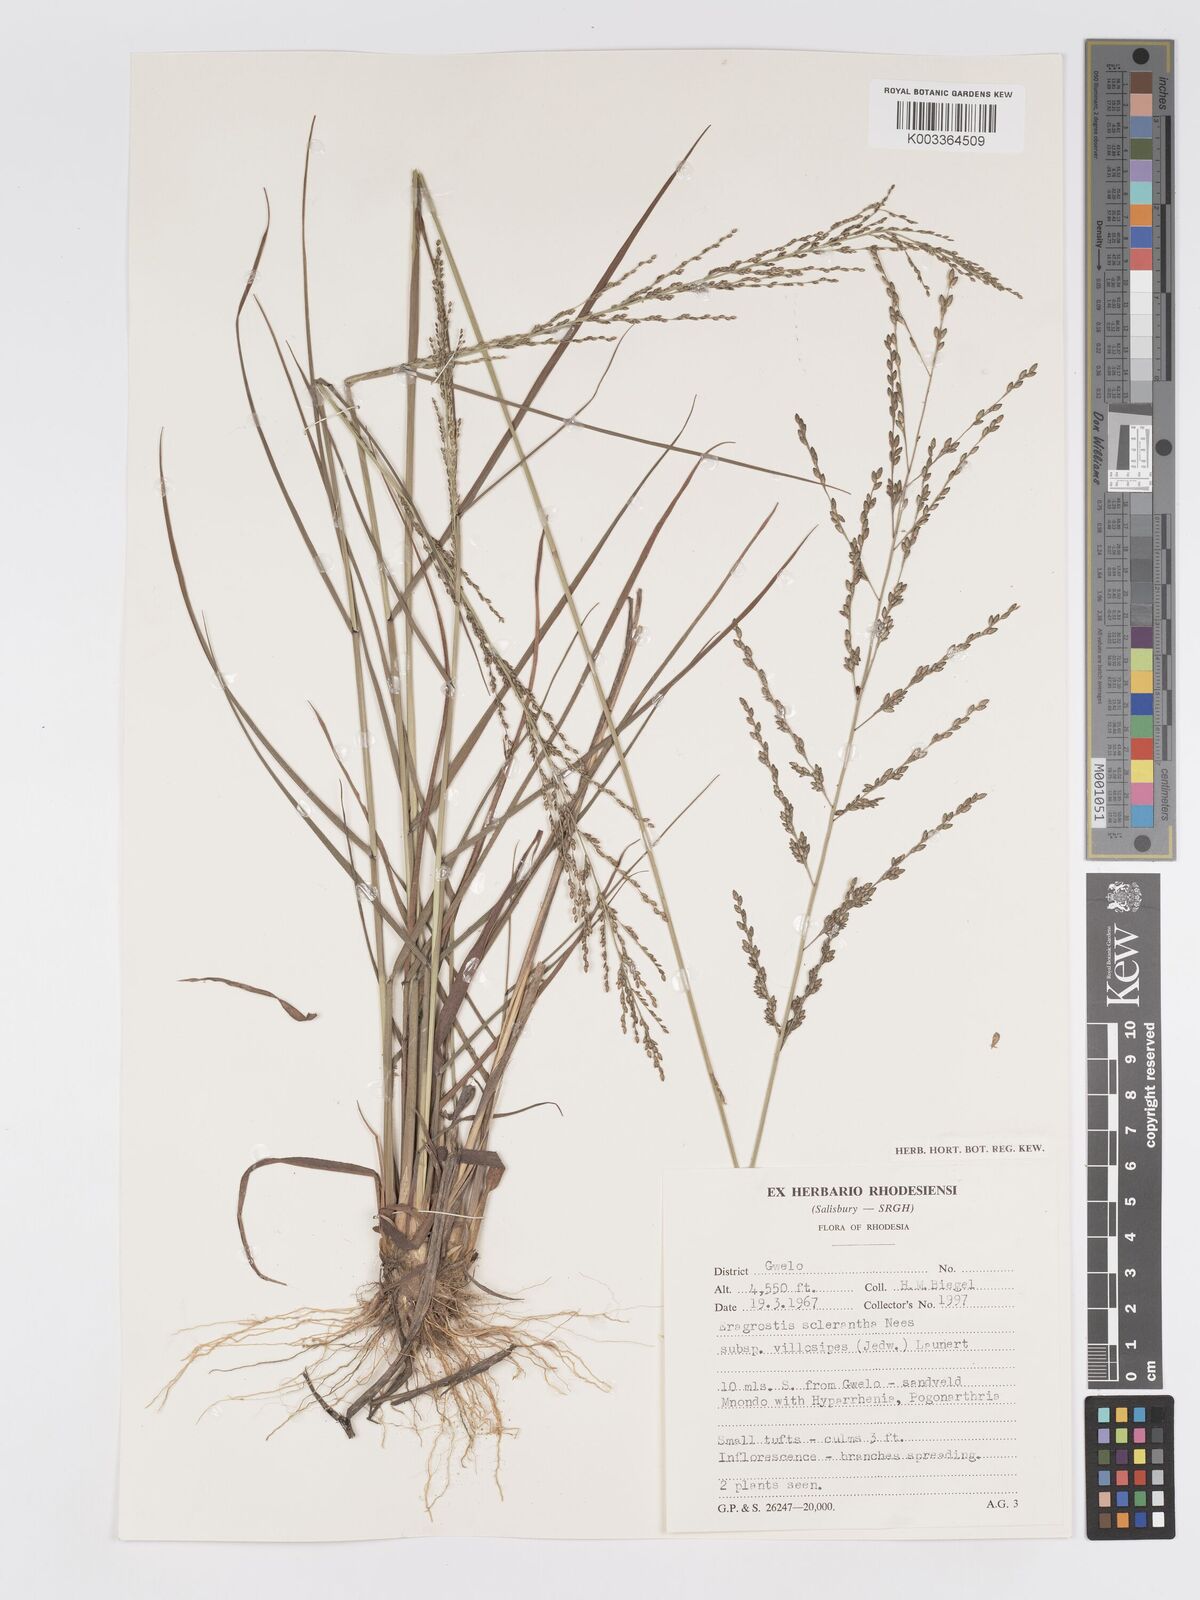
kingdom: Plantae
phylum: Tracheophyta
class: Liliopsida
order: Poales
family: Poaceae
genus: Eragrostis
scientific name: Eragrostis sclerantha
